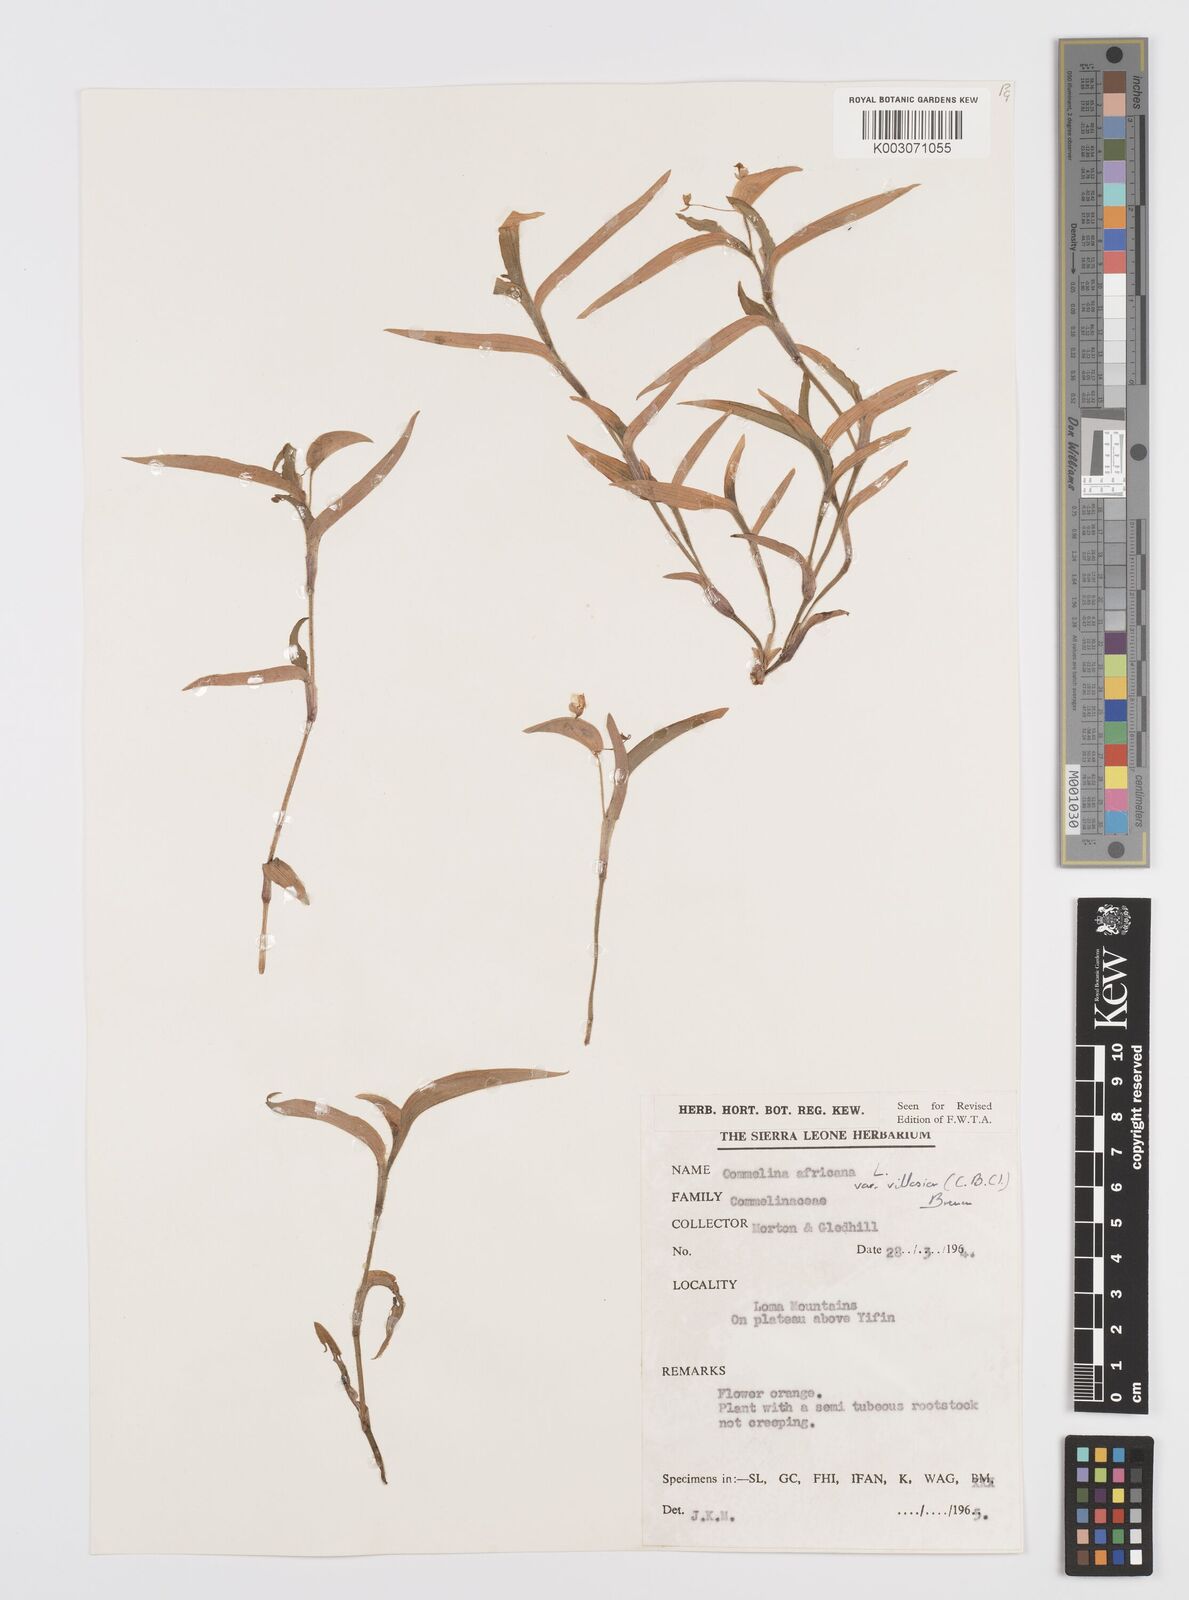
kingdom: Plantae
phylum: Tracheophyta
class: Liliopsida
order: Commelinales
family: Commelinaceae
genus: Commelina
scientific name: Commelina africana
